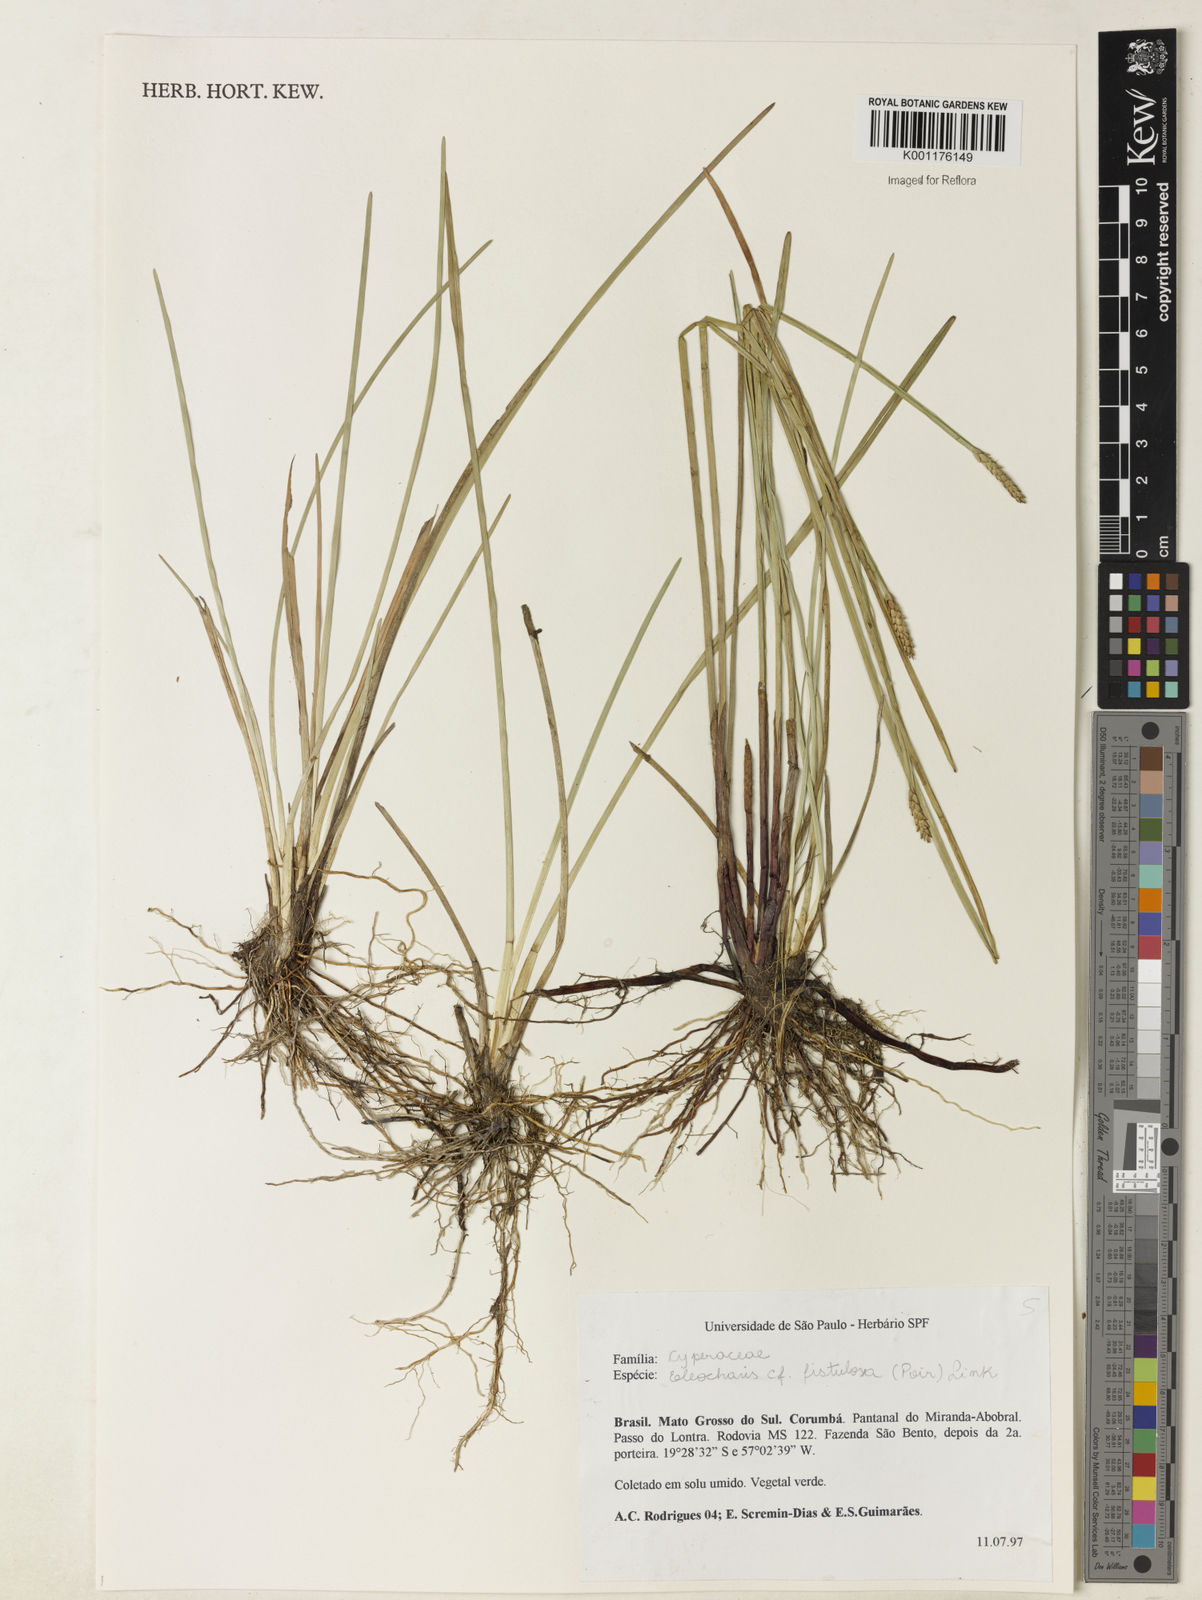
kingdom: Plantae
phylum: Tracheophyta
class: Liliopsida
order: Poales
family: Cyperaceae
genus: Eleocharis
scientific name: Eleocharis
